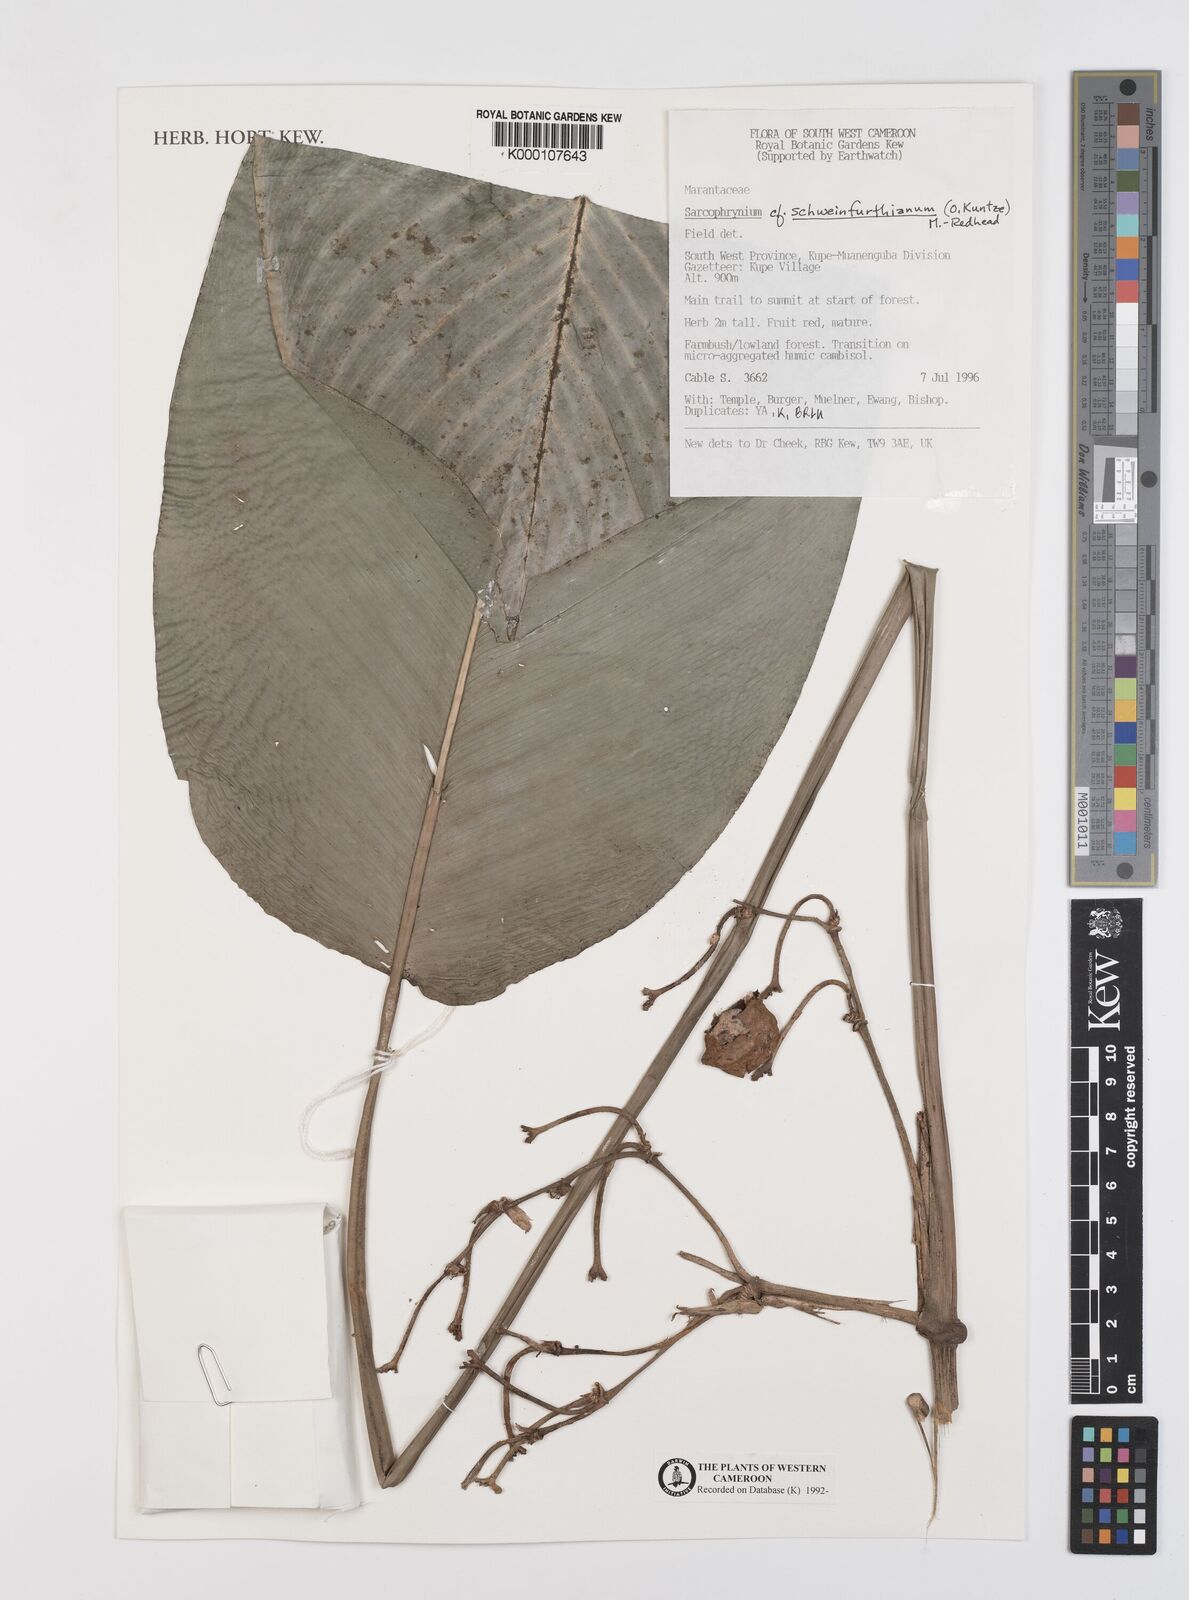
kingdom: Plantae
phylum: Tracheophyta
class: Liliopsida
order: Zingiberales
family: Marantaceae
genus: Sarcophrynium
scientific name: Sarcophrynium schweinfurthianum
